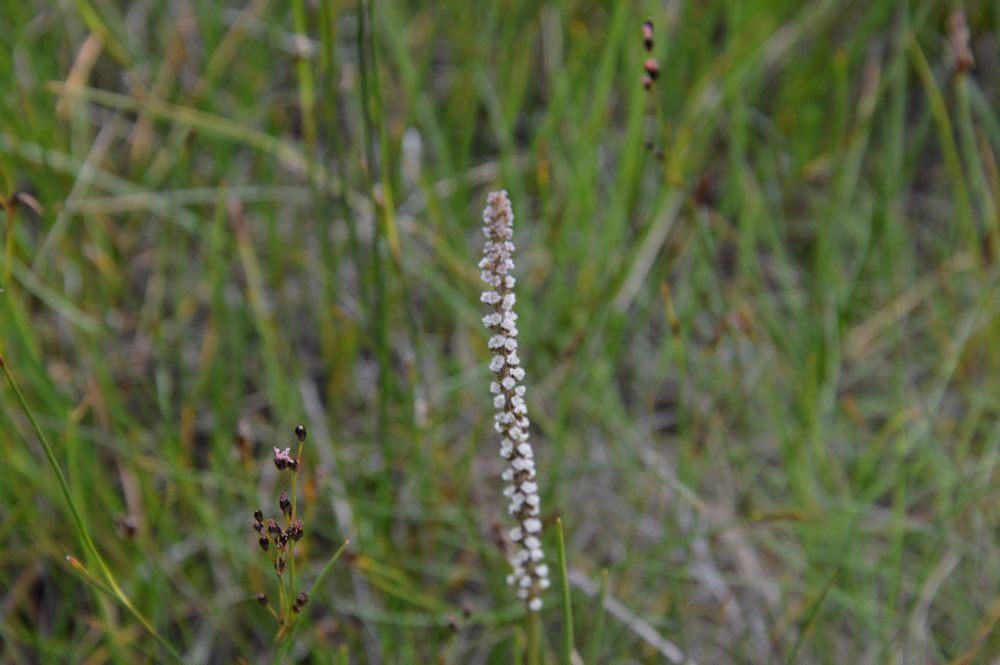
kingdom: Plantae
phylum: Tracheophyta
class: Liliopsida
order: Alismatales
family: Juncaginaceae
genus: Triglochin
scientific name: Triglochin maritima
